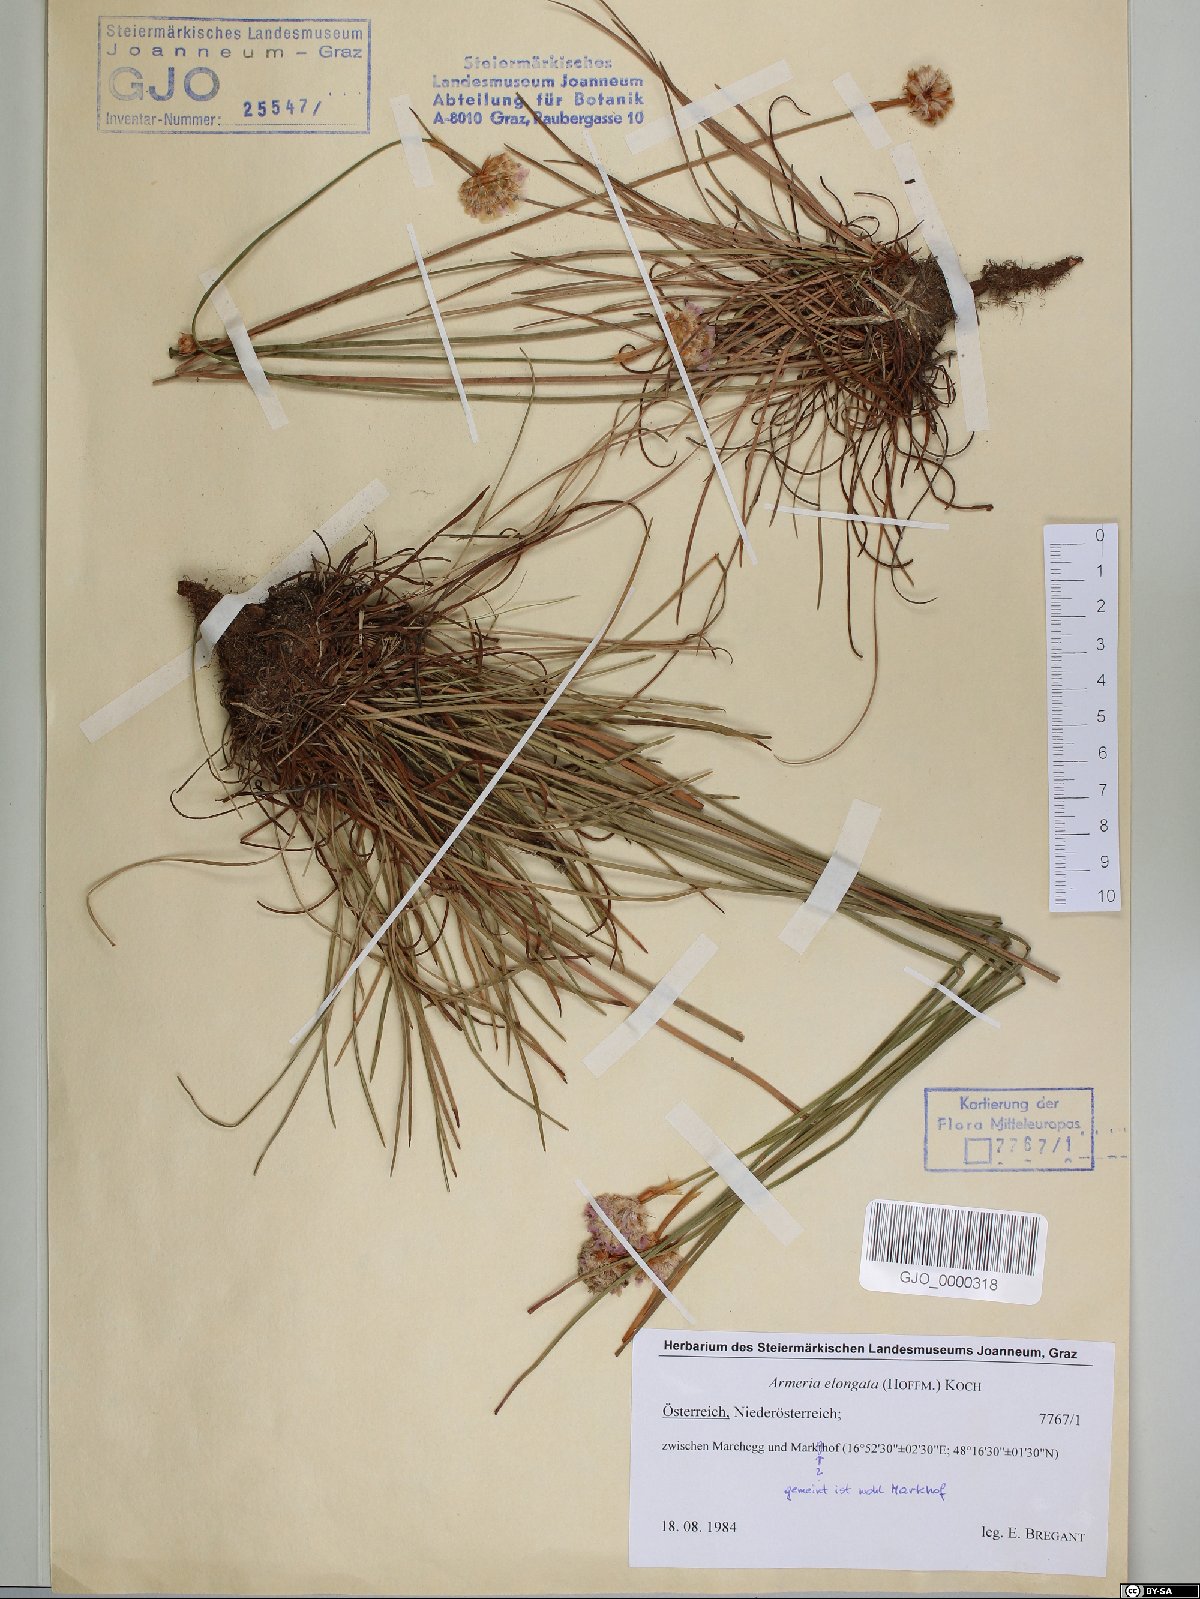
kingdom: Plantae
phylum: Tracheophyta
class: Magnoliopsida
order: Caryophyllales
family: Plumbaginaceae
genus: Armeria
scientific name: Armeria maritima
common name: Thrift
